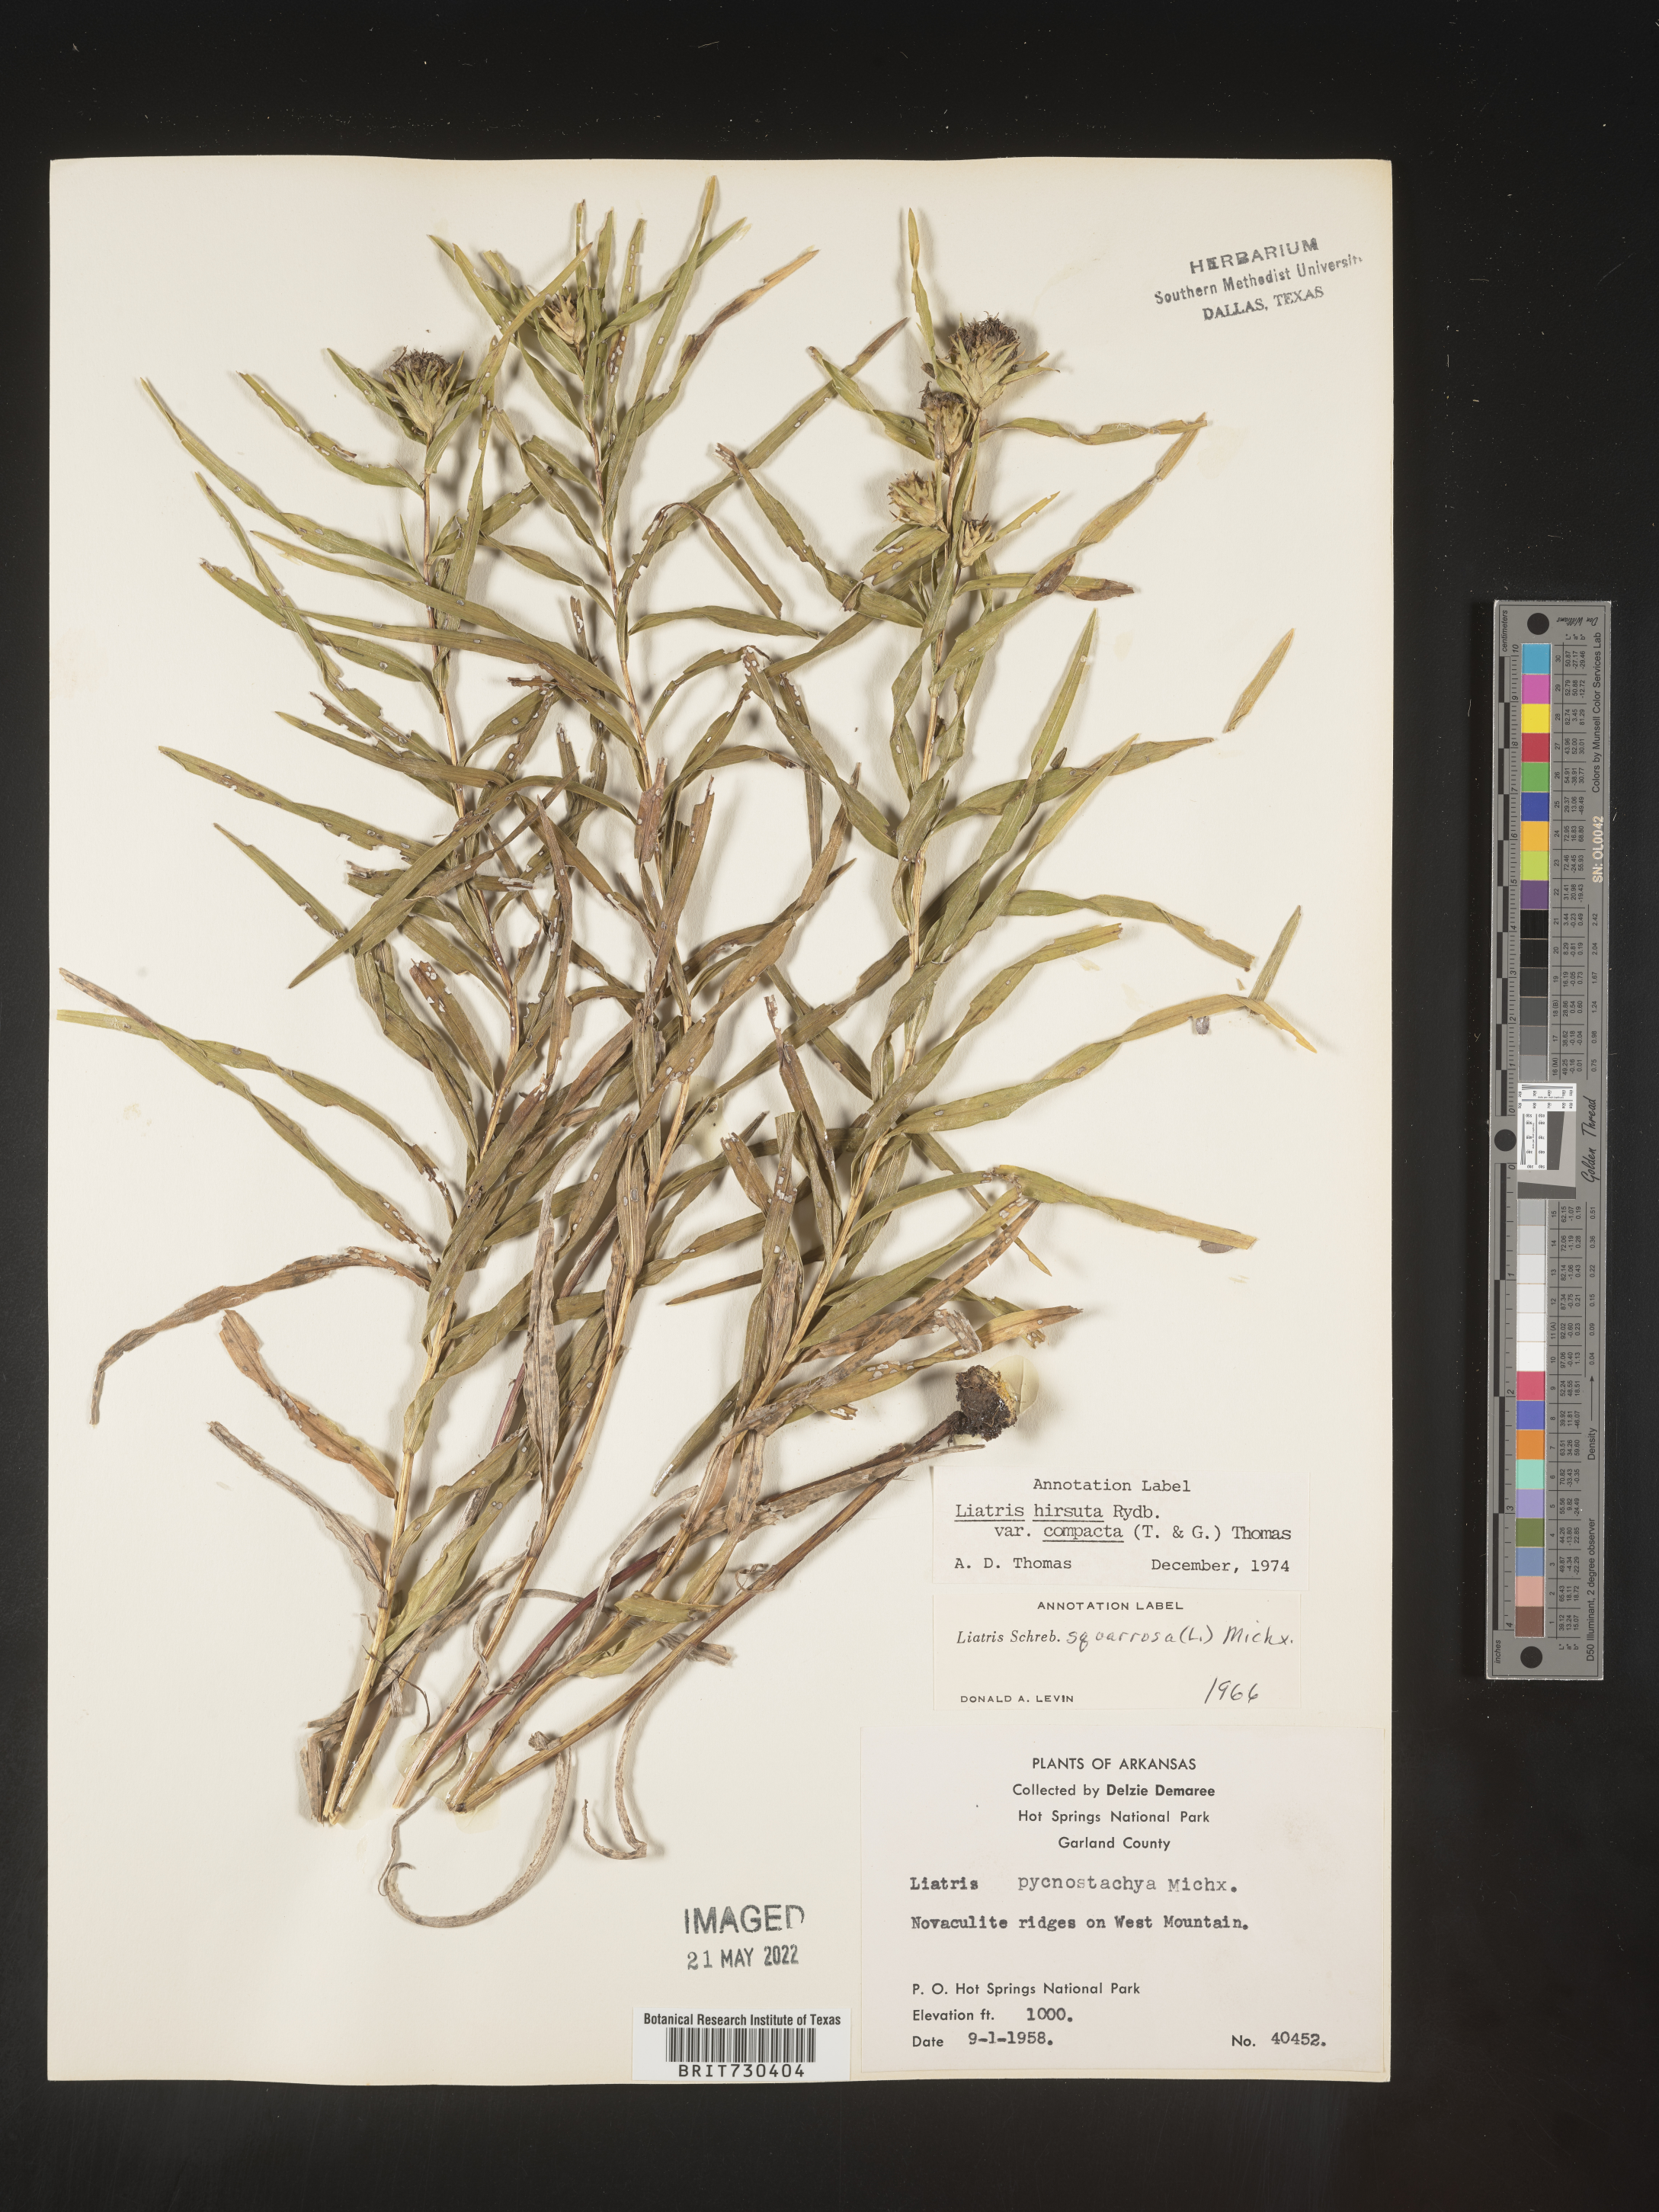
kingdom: Plantae
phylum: Tracheophyta
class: Magnoliopsida
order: Asterales
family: Asteraceae
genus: Liatris
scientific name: Liatris compacta
